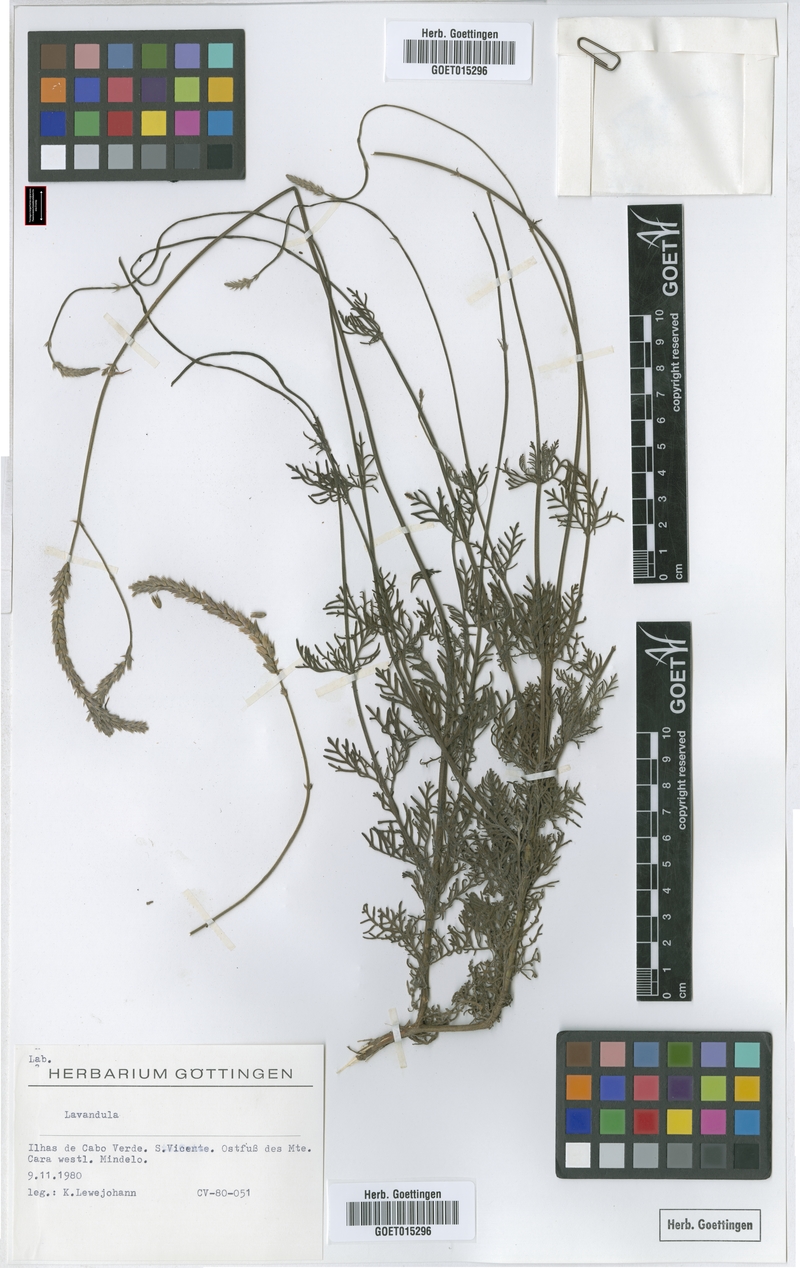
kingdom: Plantae
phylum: Tracheophyta
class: Magnoliopsida
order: Lamiales
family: Lamiaceae
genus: Lavandula
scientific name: Lavandula
